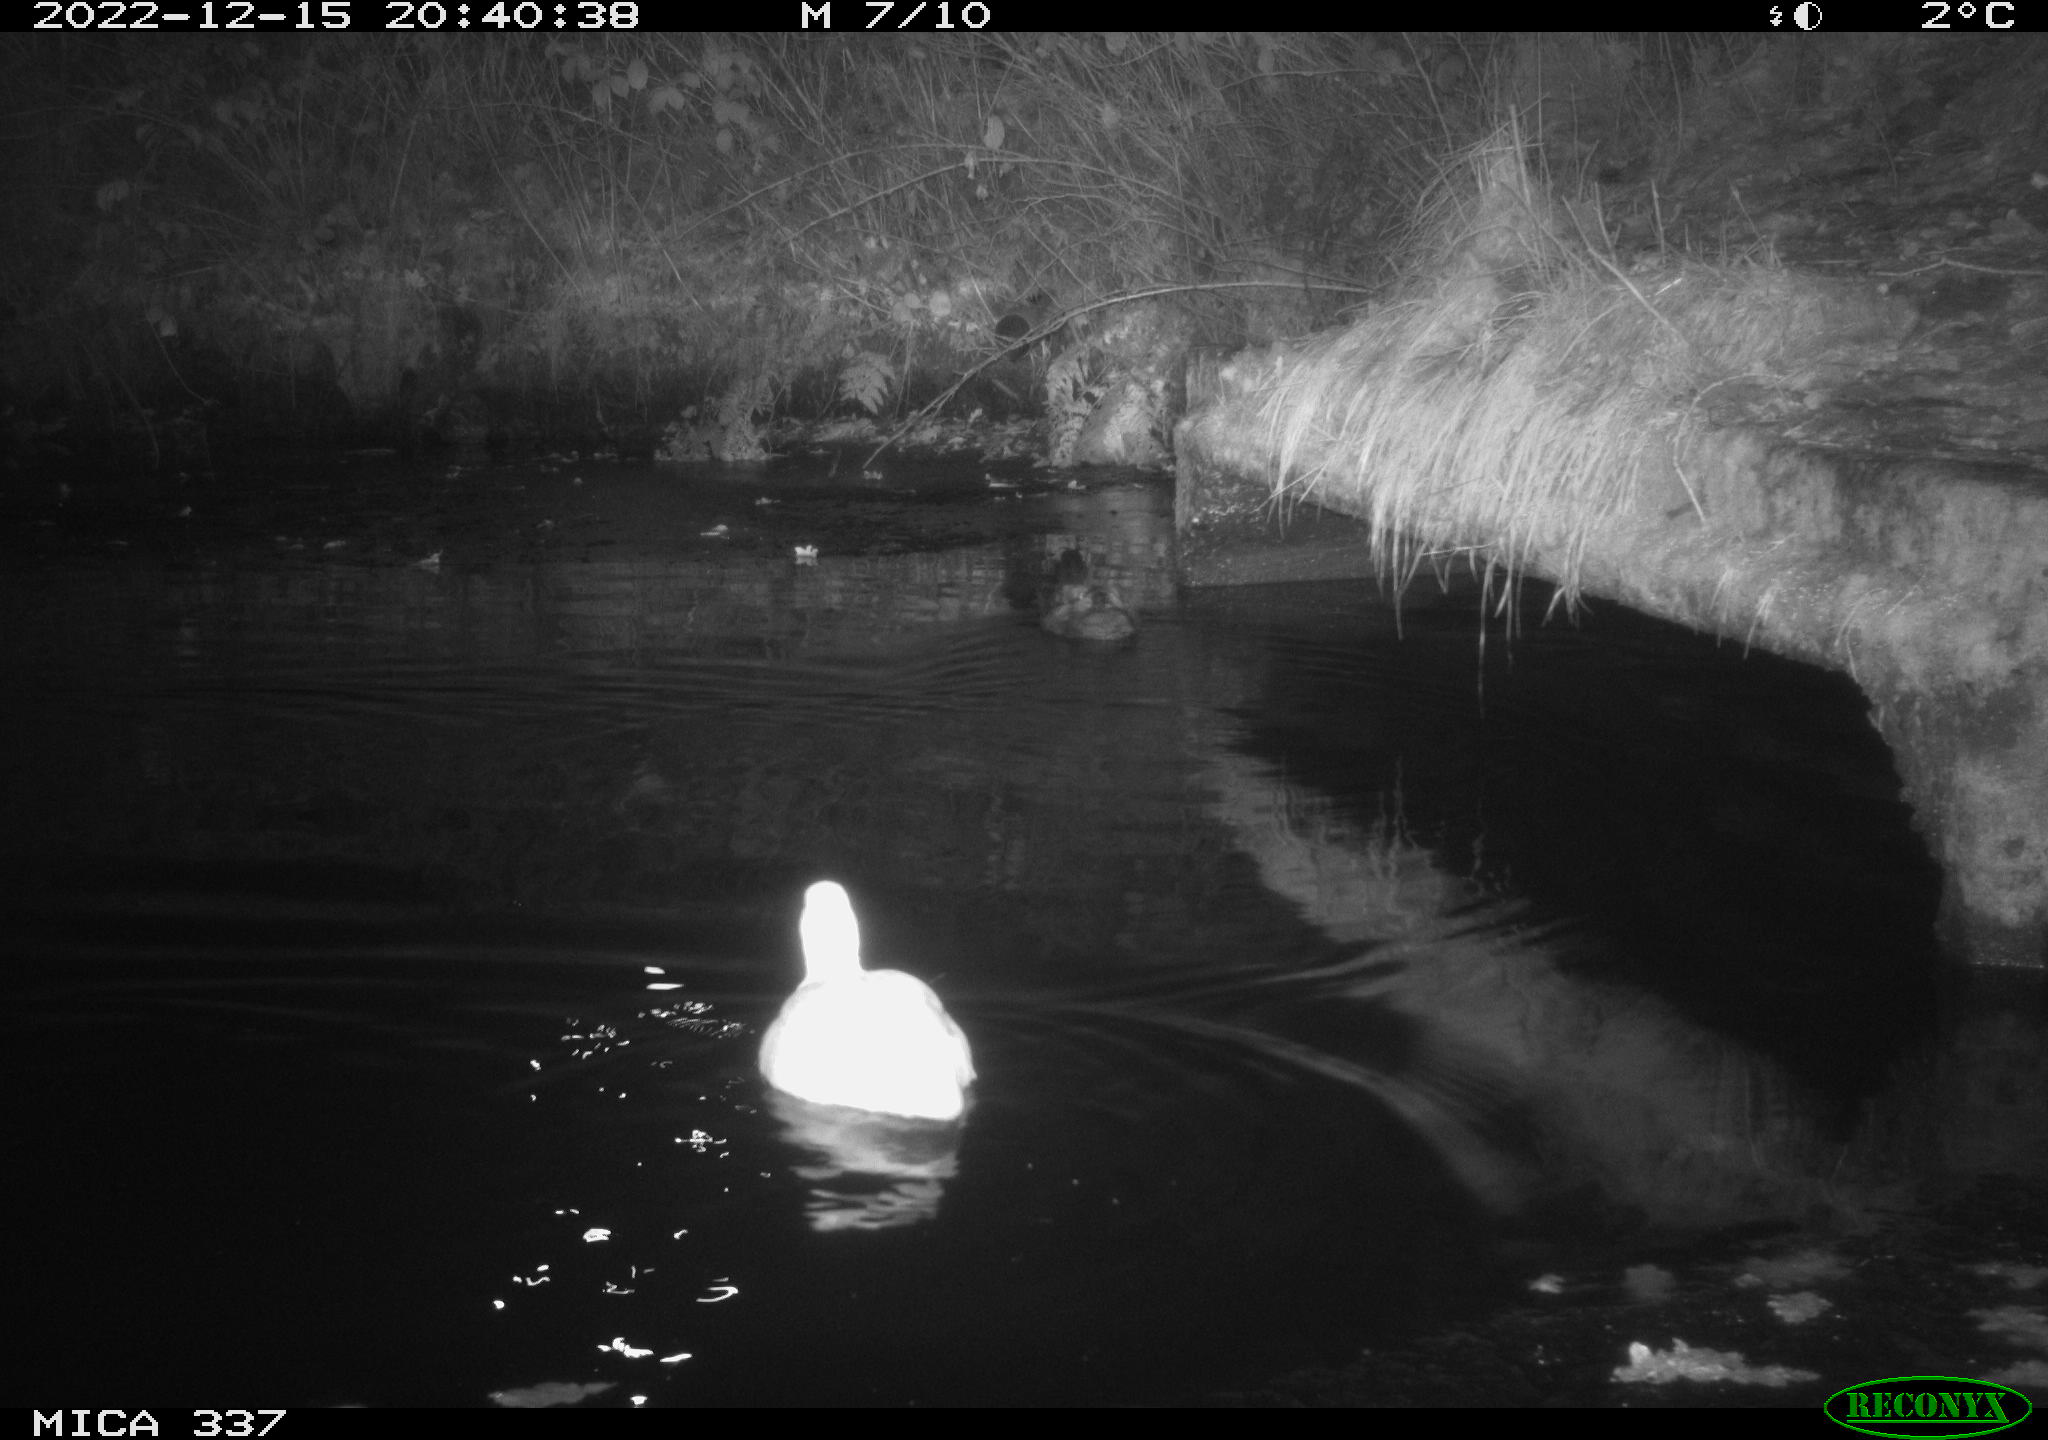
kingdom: Animalia
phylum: Chordata
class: Aves
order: Anseriformes
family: Anatidae
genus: Anas
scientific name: Anas
